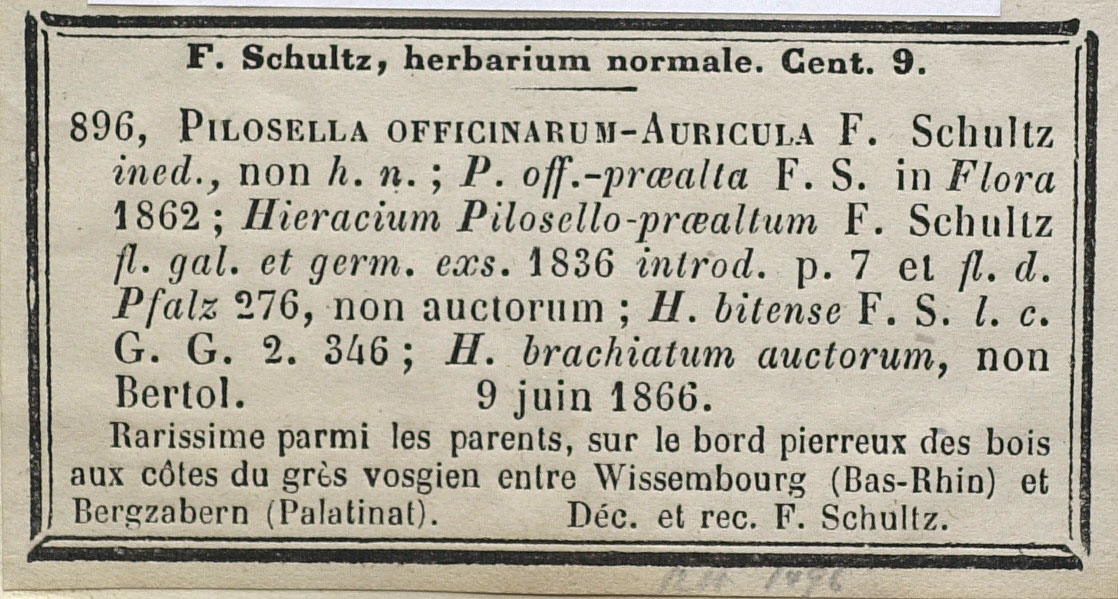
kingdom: Plantae
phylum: Tracheophyta
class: Magnoliopsida
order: Asterales
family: Asteraceae
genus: Pilosella
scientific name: Pilosella fallacina
